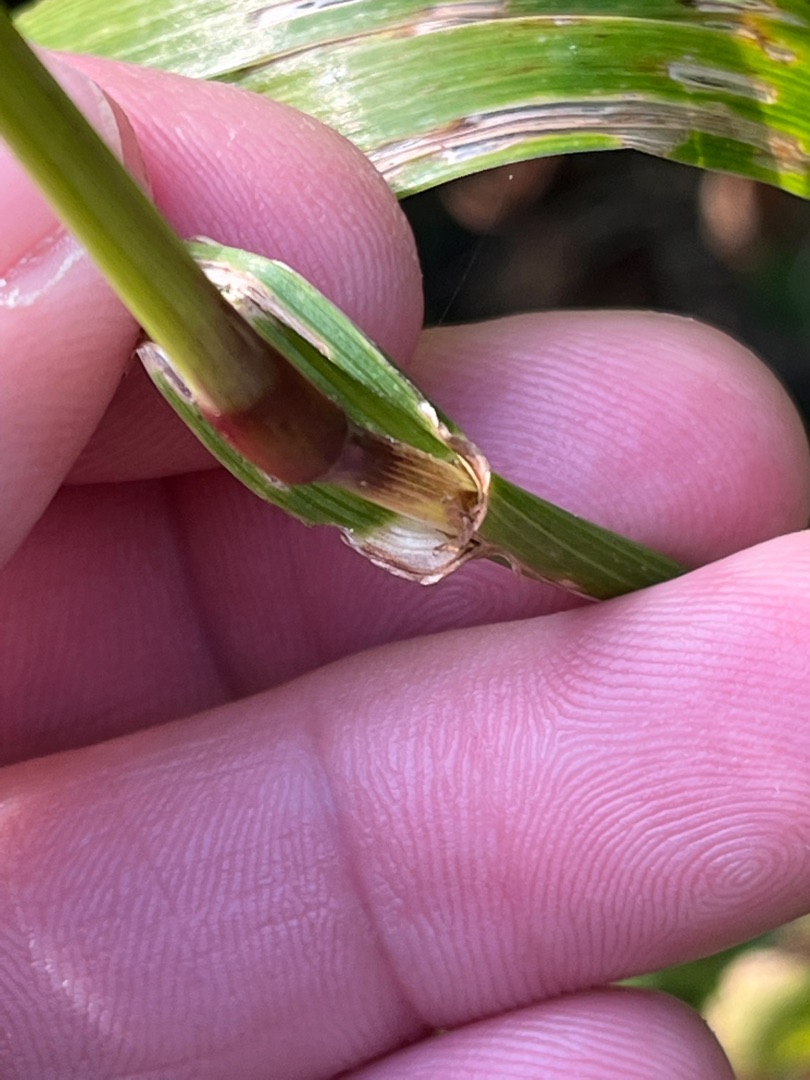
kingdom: Plantae
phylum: Tracheophyta
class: Liliopsida
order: Poales
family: Poaceae
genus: Lolium
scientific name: Lolium giganteum
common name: Kæmpe-svingel
